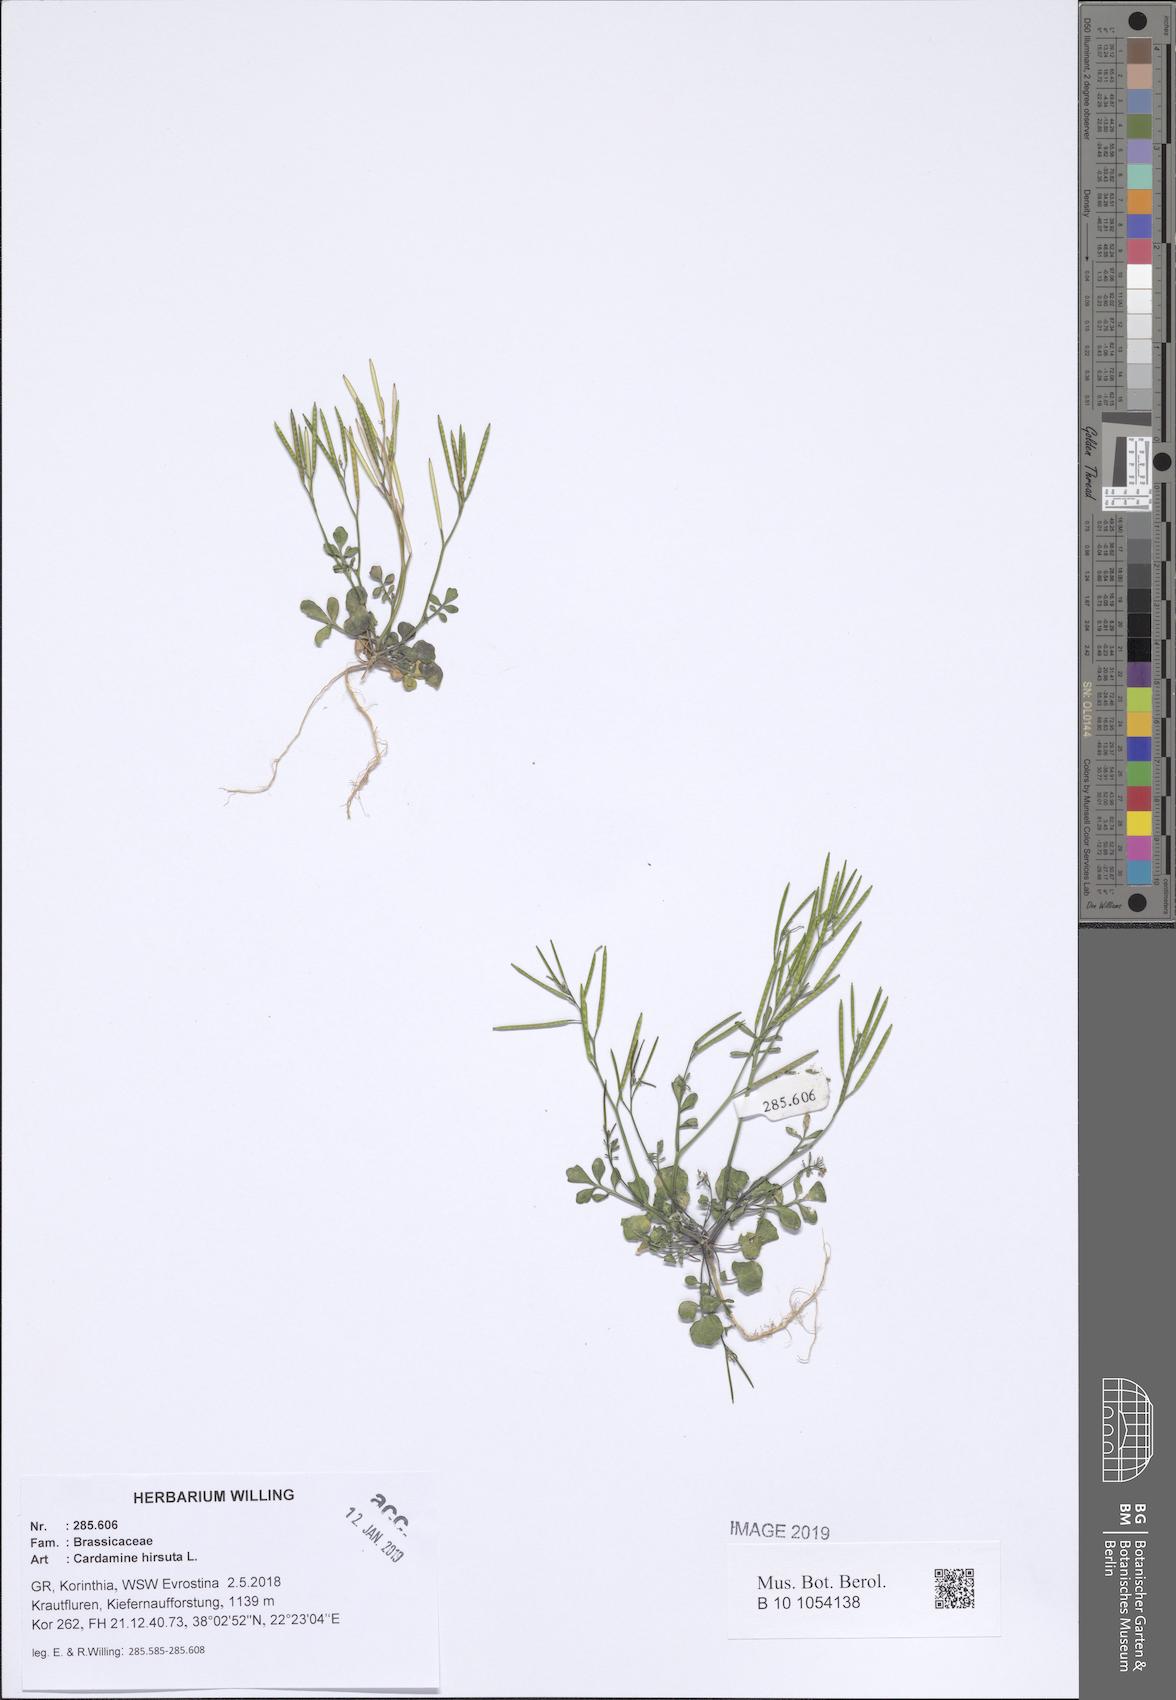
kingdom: Plantae
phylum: Tracheophyta
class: Magnoliopsida
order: Brassicales
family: Brassicaceae
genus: Cardamine
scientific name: Cardamine hirsuta
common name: Hairy bittercress
